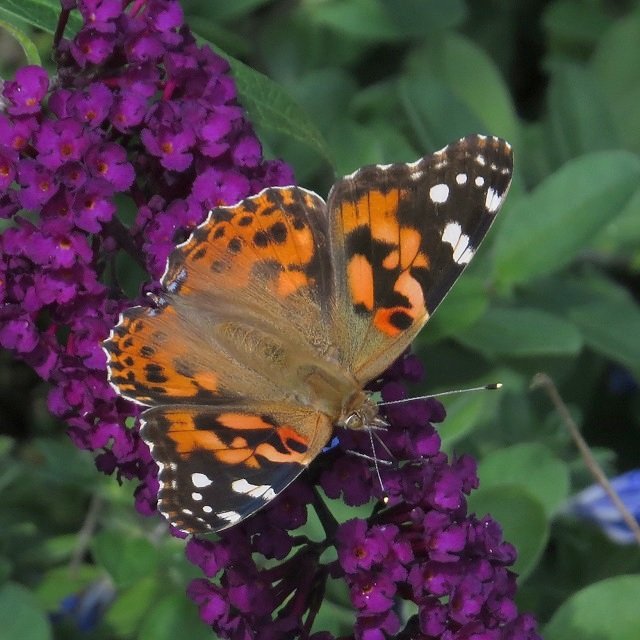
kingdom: Animalia
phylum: Arthropoda
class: Insecta
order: Lepidoptera
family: Nymphalidae
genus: Vanessa
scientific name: Vanessa cardui
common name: Painted Lady
